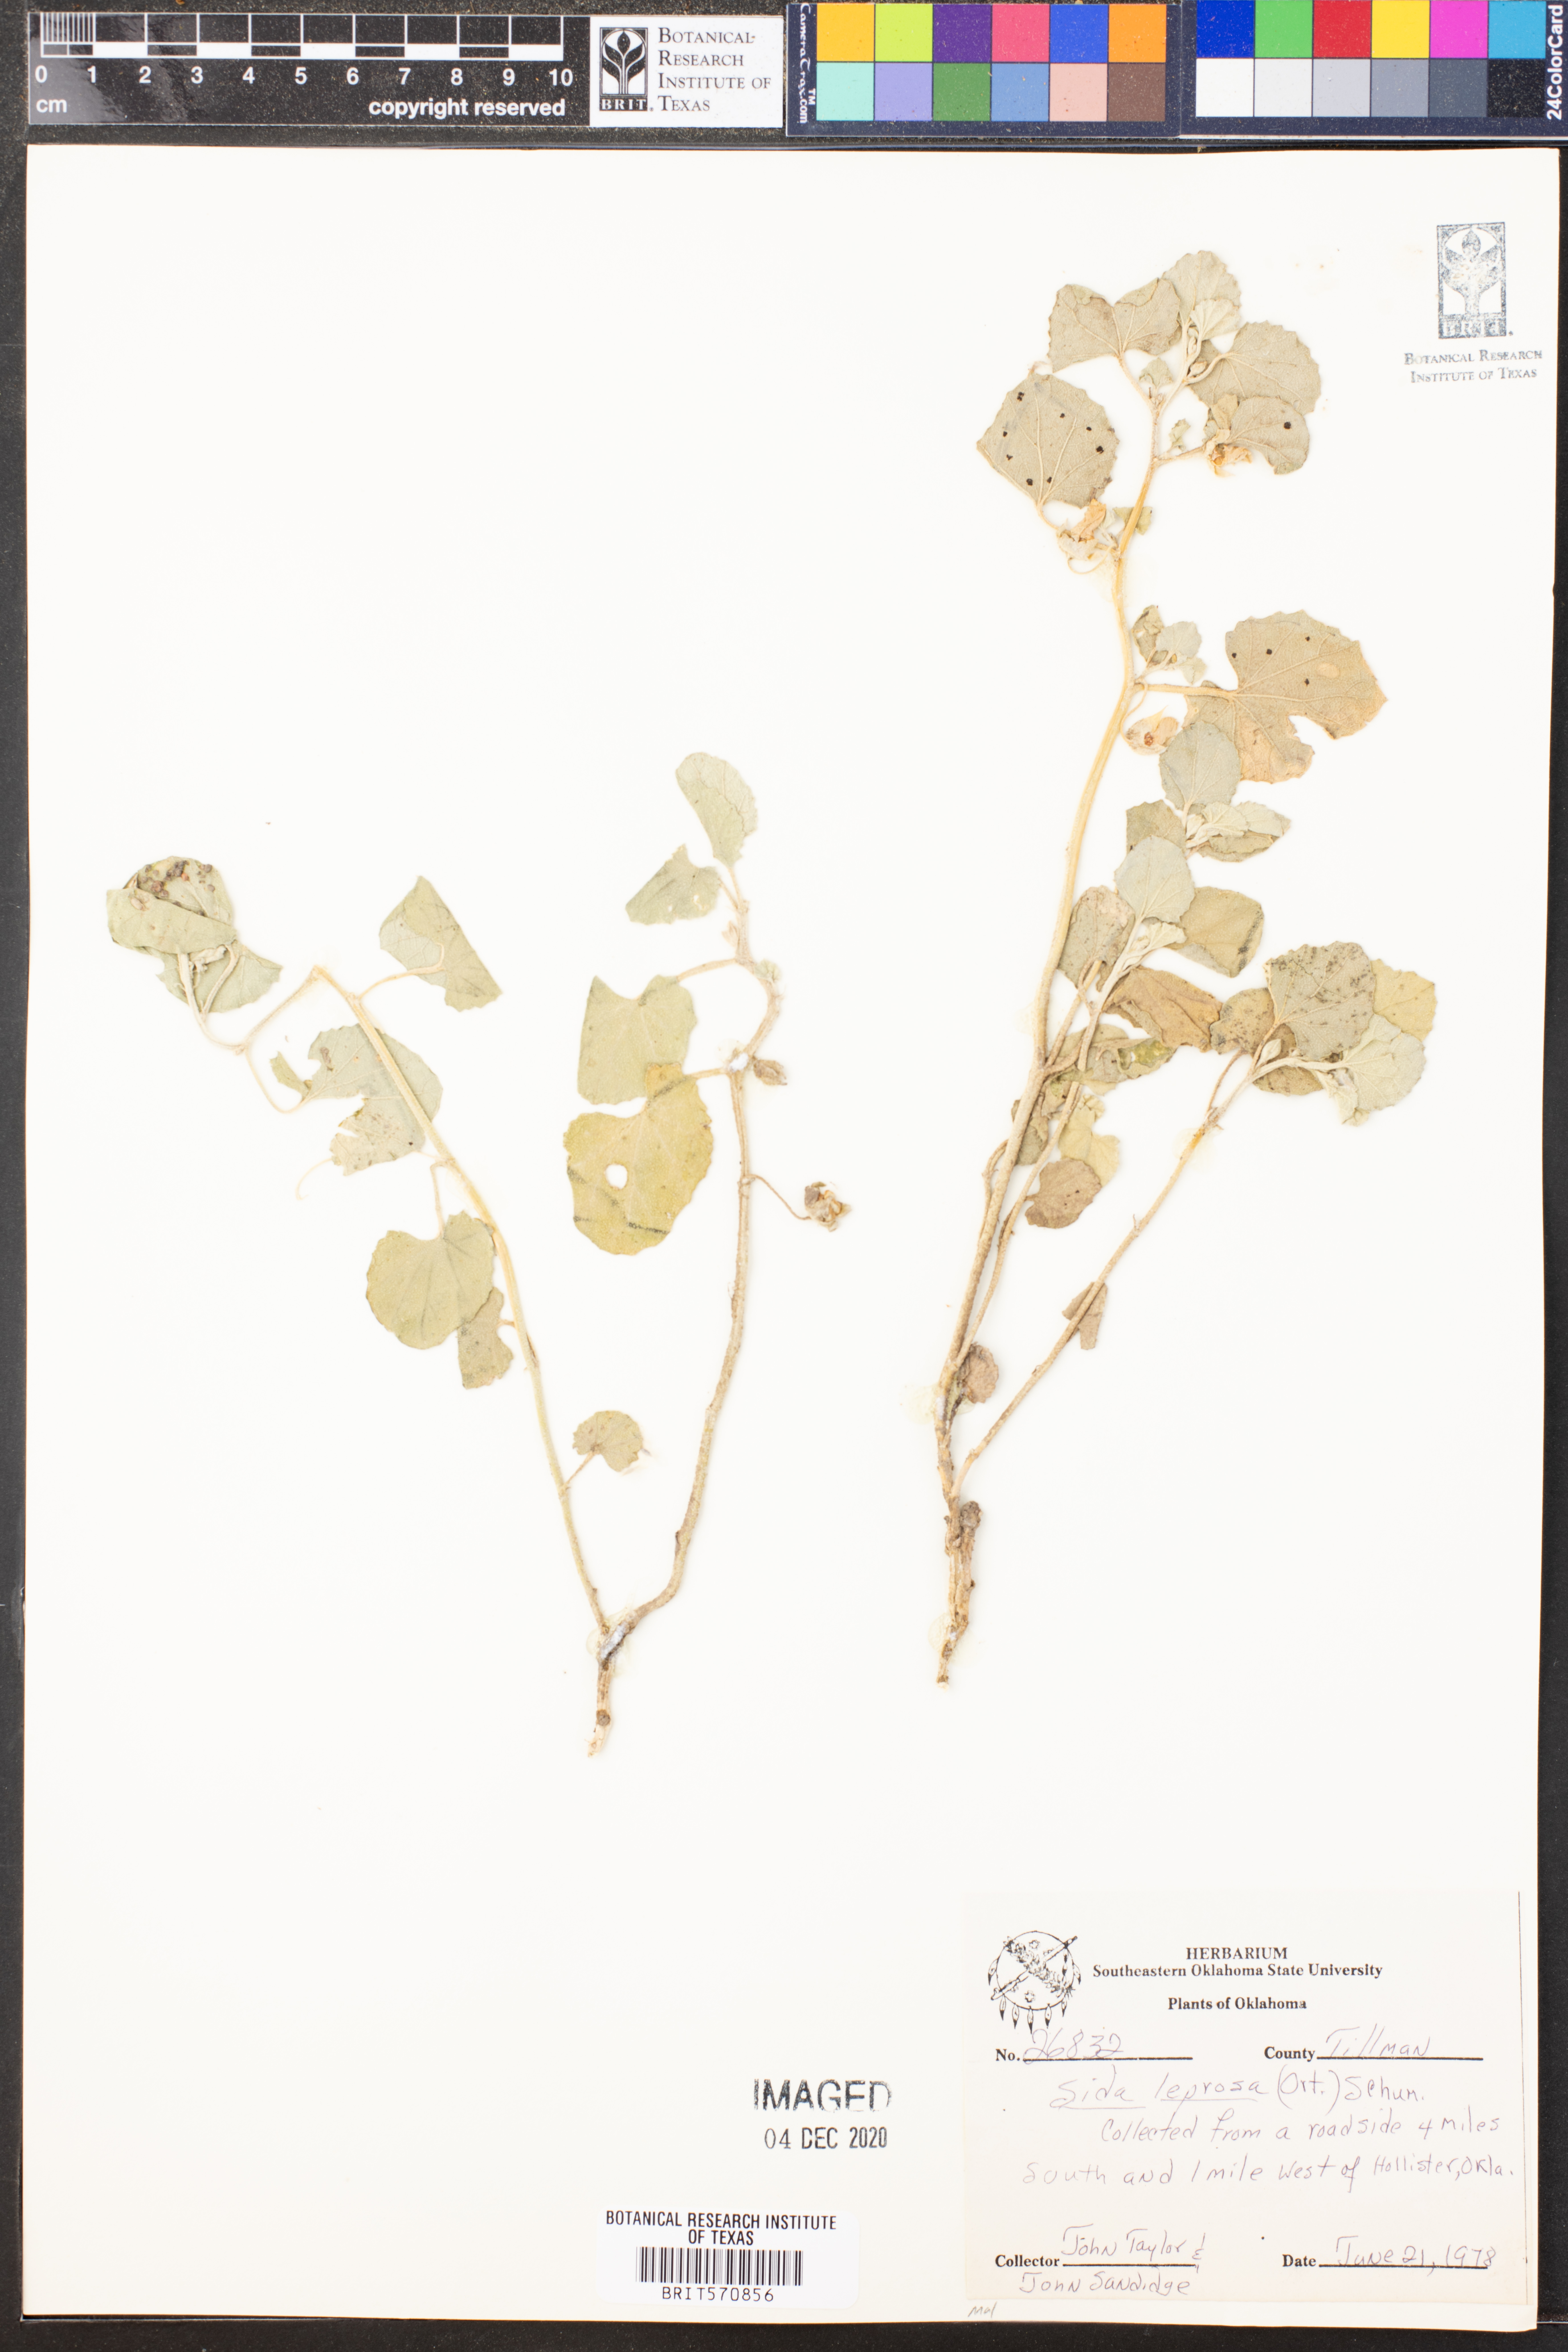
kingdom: Plantae
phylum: Tracheophyta
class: Magnoliopsida
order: Malvales
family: Malvaceae
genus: Malvella
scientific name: Malvella leprosa
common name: Alkali-mallow
